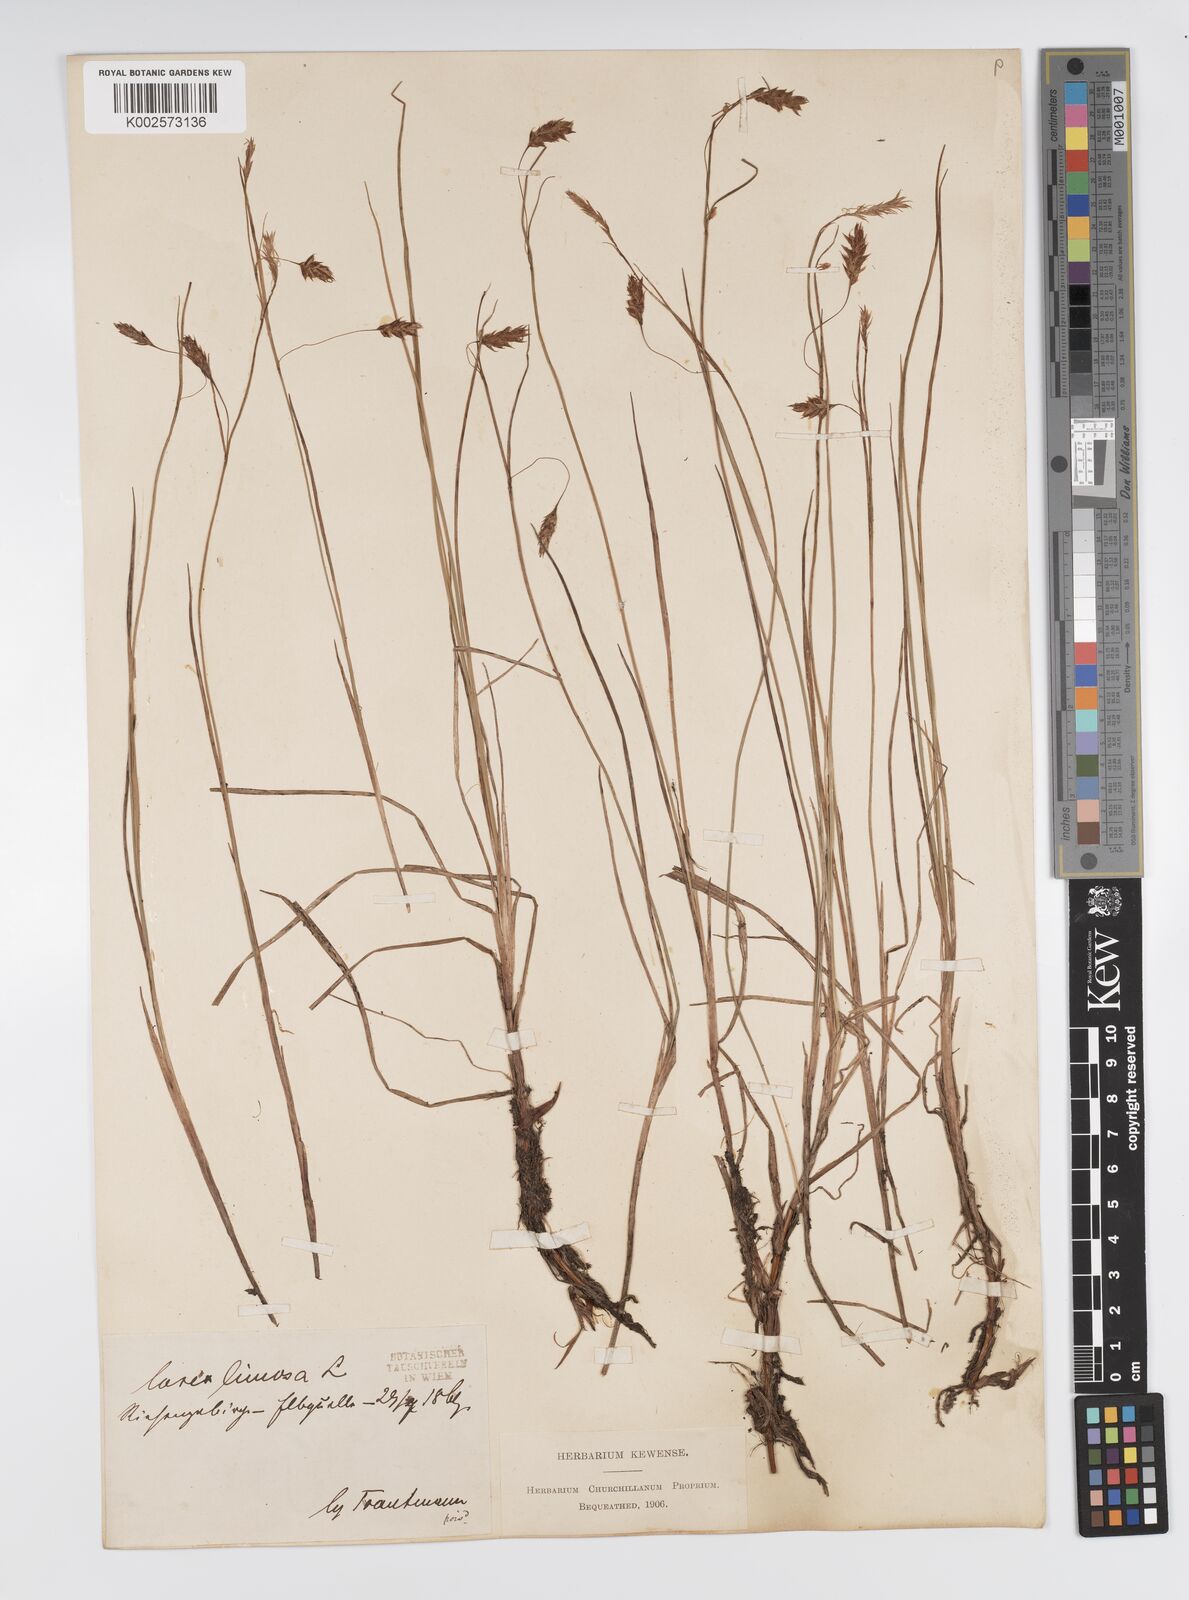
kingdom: Plantae
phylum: Tracheophyta
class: Liliopsida
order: Poales
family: Cyperaceae
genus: Carex
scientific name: Carex limosa
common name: Bog sedge
